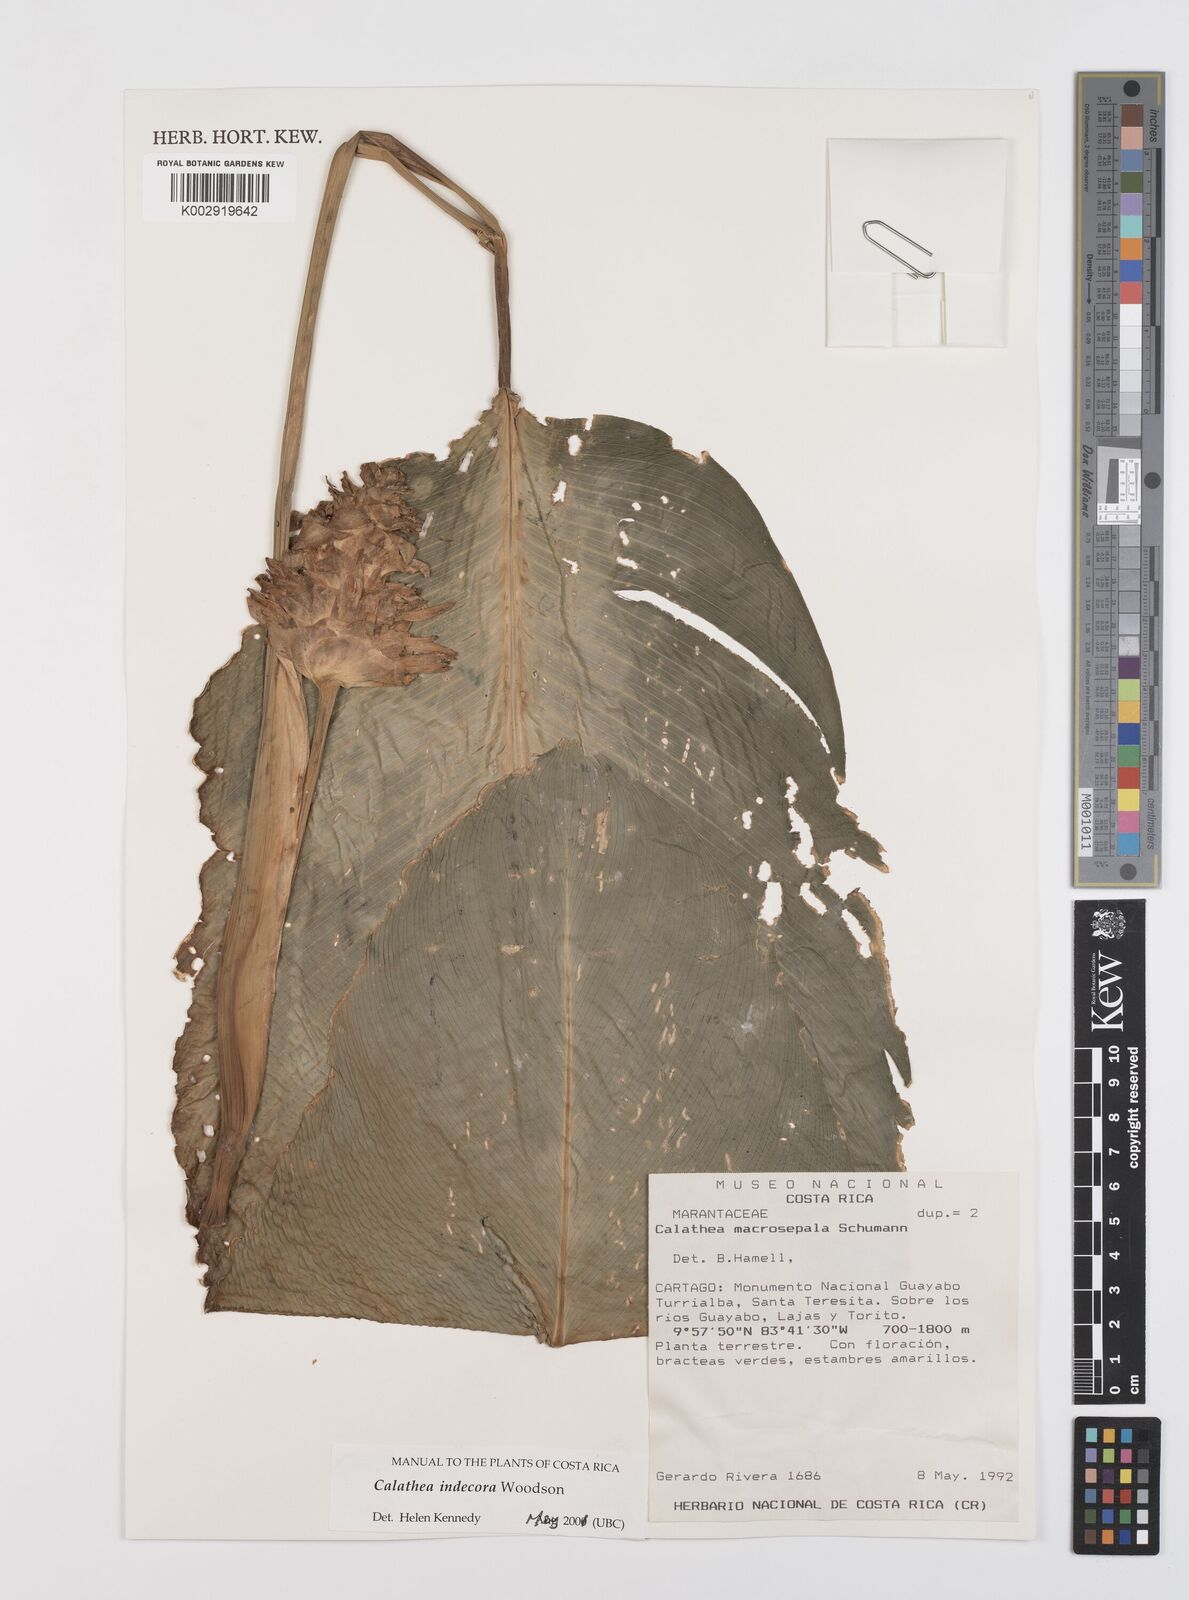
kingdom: Plantae
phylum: Tracheophyta
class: Liliopsida
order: Zingiberales
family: Marantaceae
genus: Goeppertia
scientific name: Goeppertia indecora
